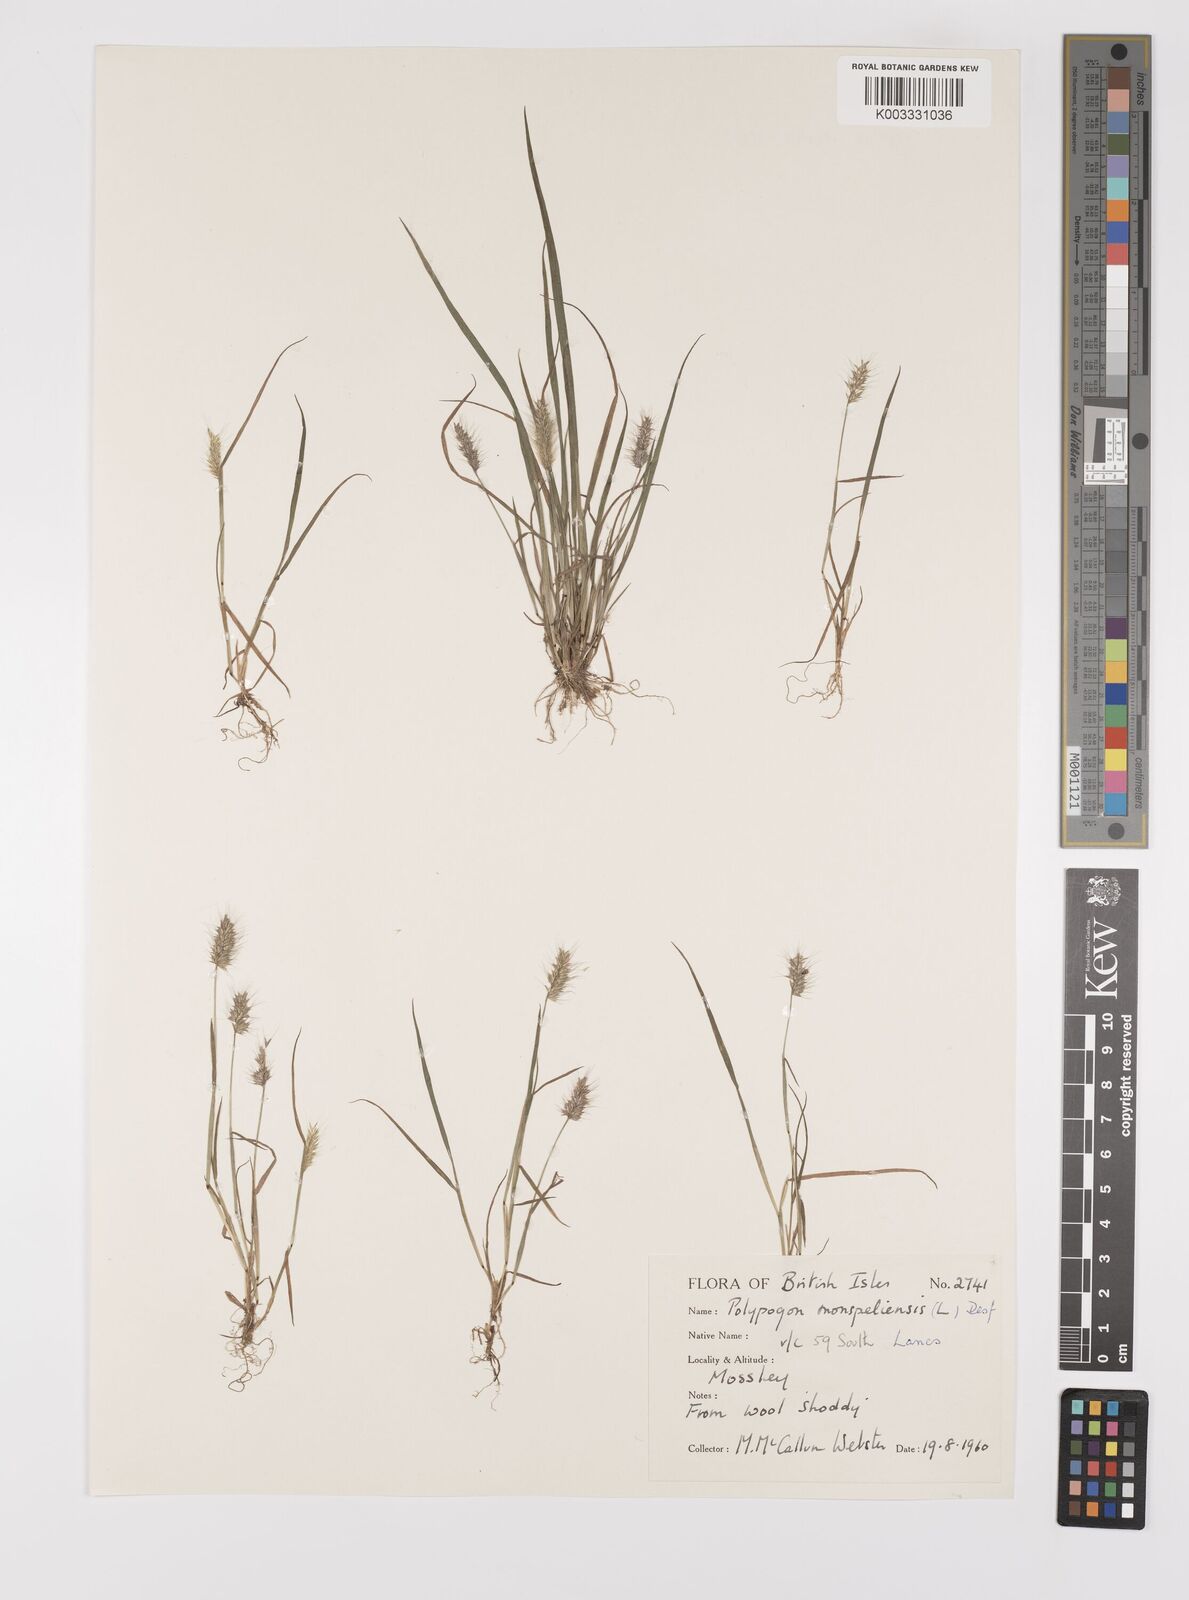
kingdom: Plantae
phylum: Tracheophyta
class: Liliopsida
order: Poales
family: Poaceae
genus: Polypogon
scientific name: Polypogon monspeliensis
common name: Annual rabbitsfoot grass
